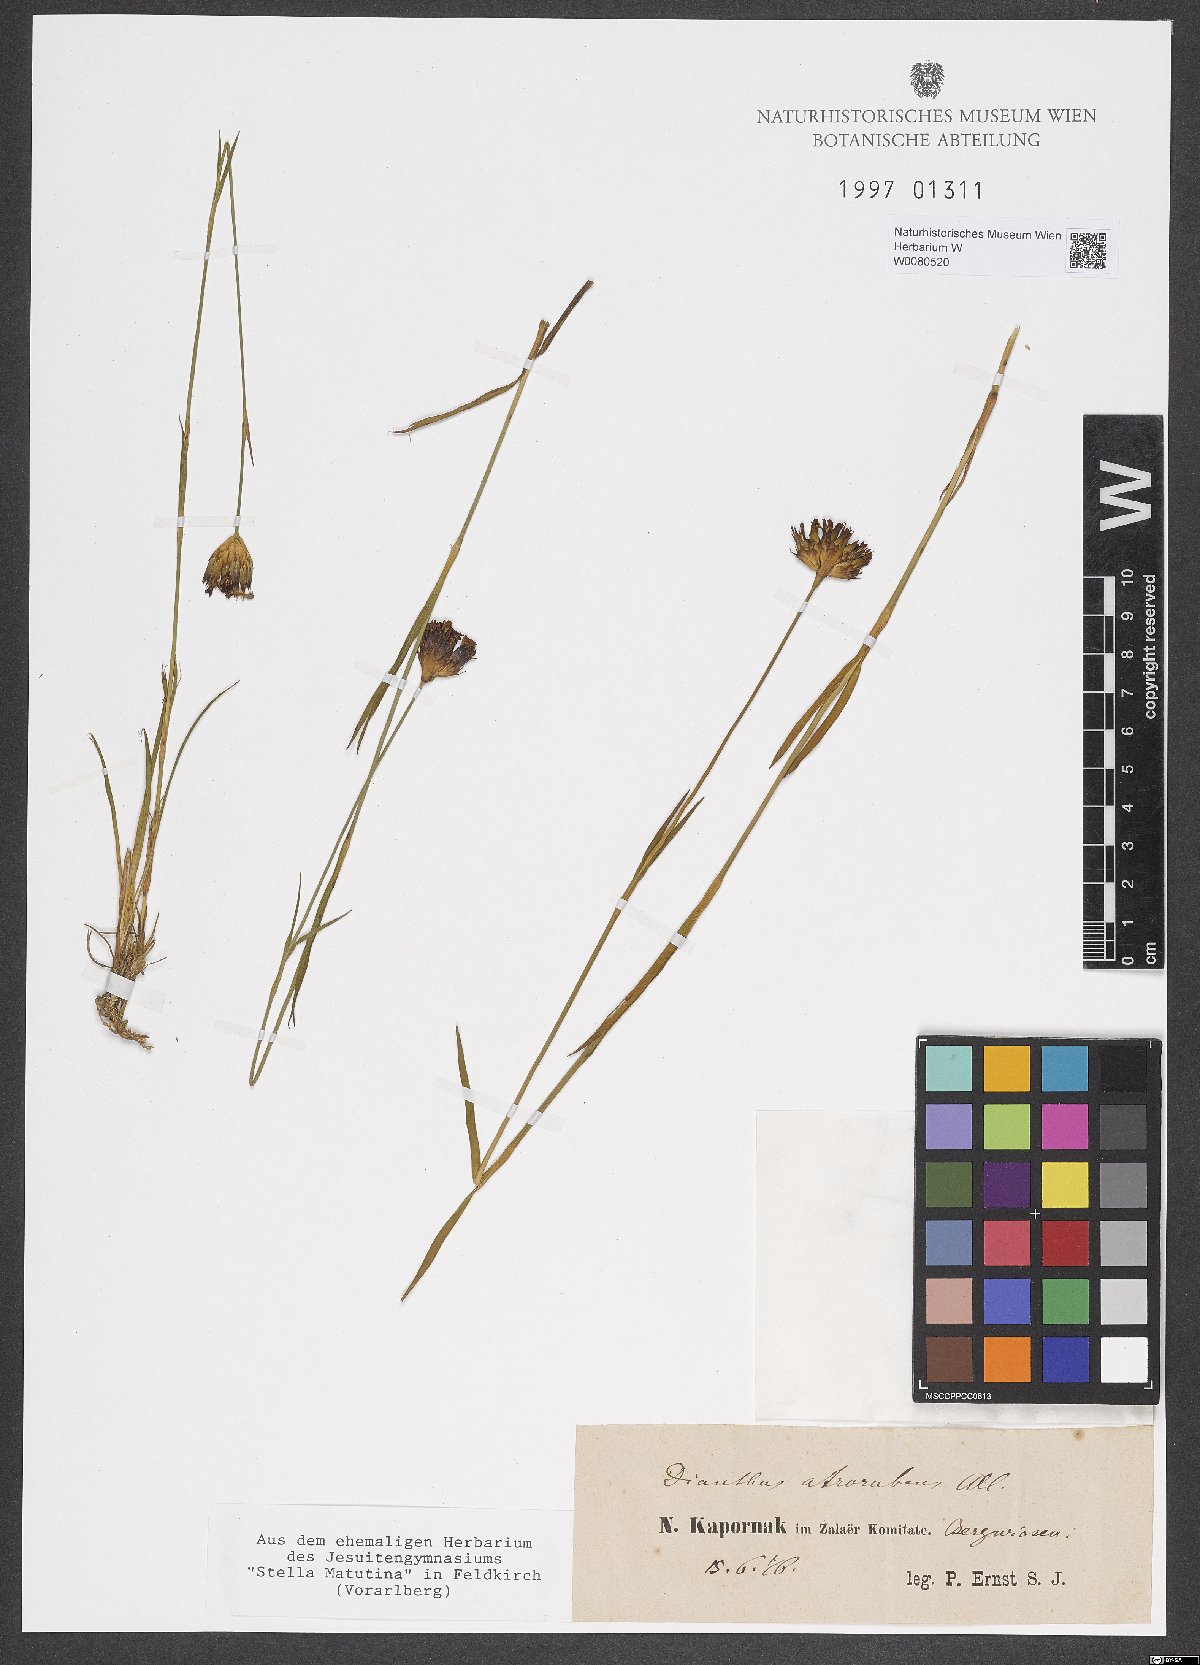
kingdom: Plantae
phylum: Tracheophyta
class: Magnoliopsida
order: Caryophyllales
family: Caryophyllaceae
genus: Dianthus
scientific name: Dianthus carthusianorum
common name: Carthusian pink
